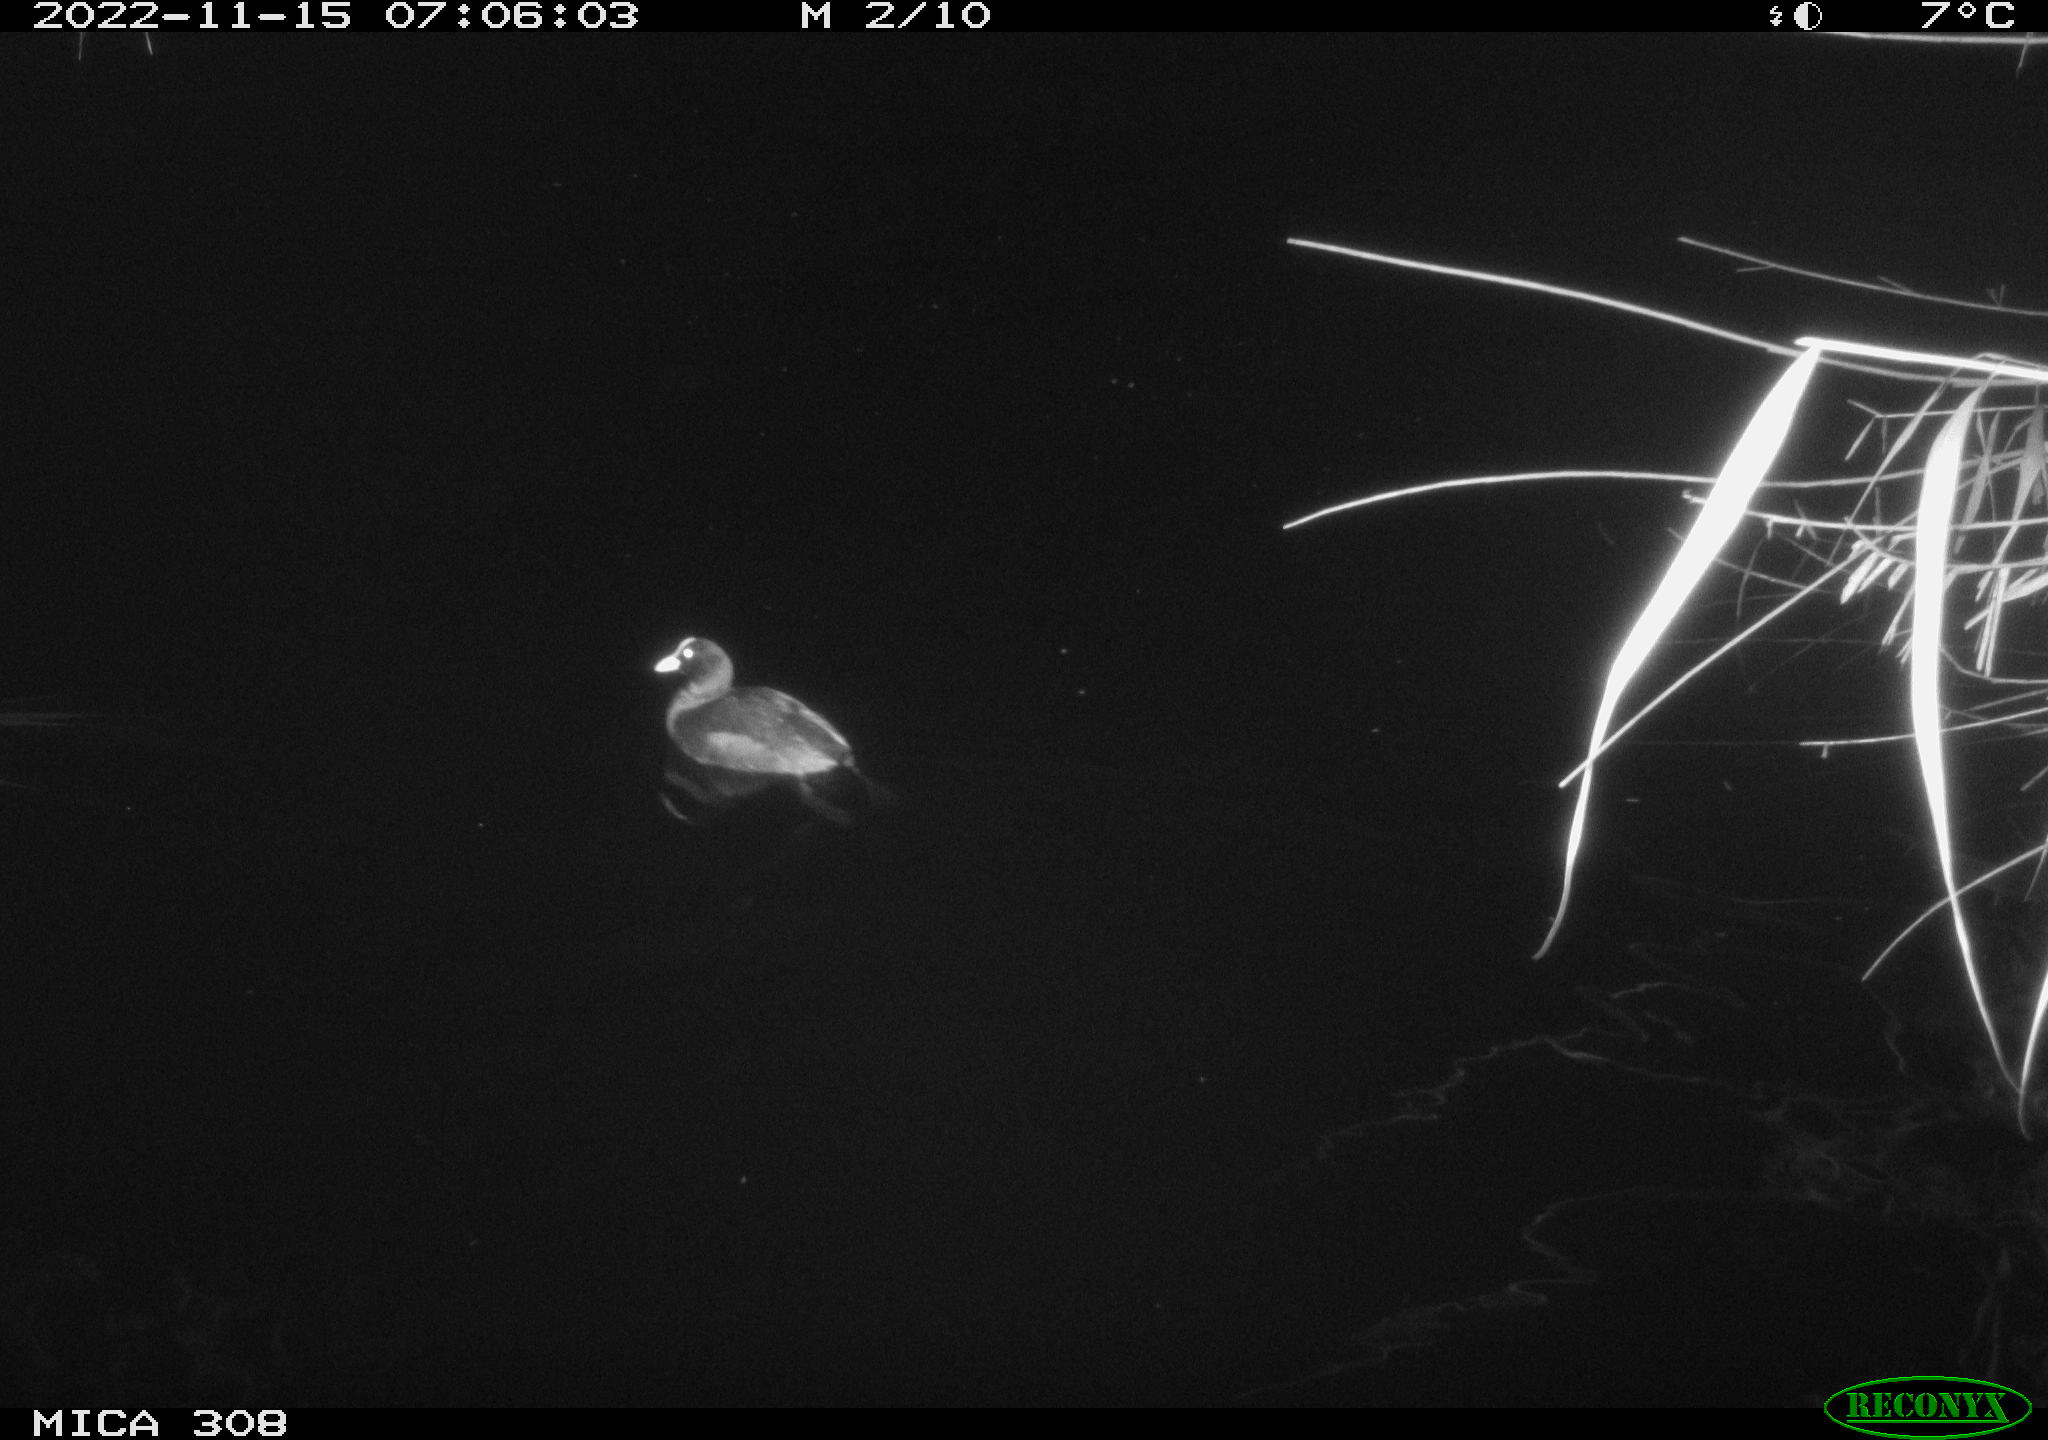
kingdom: Animalia
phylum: Chordata
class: Aves
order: Anseriformes
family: Anatidae
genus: Anas
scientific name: Anas
